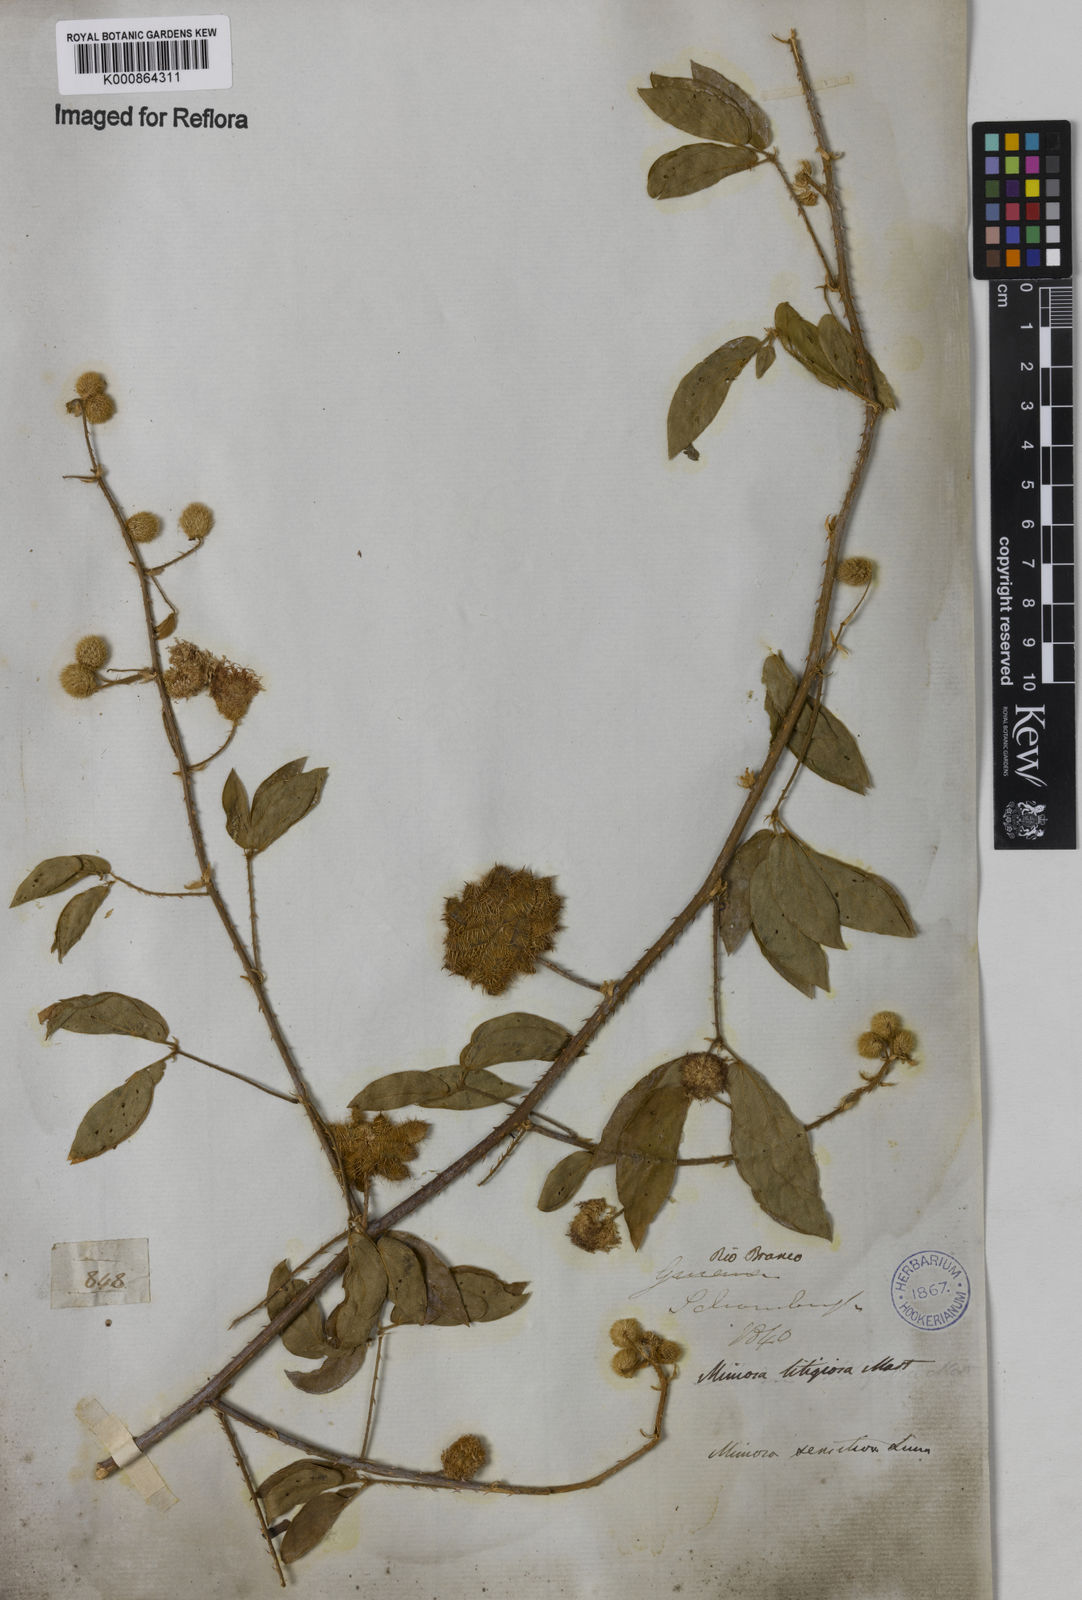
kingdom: Plantae
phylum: Tracheophyta
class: Magnoliopsida
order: Fabales
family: Fabaceae
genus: Mimosa
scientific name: Mimosa sensitiva
